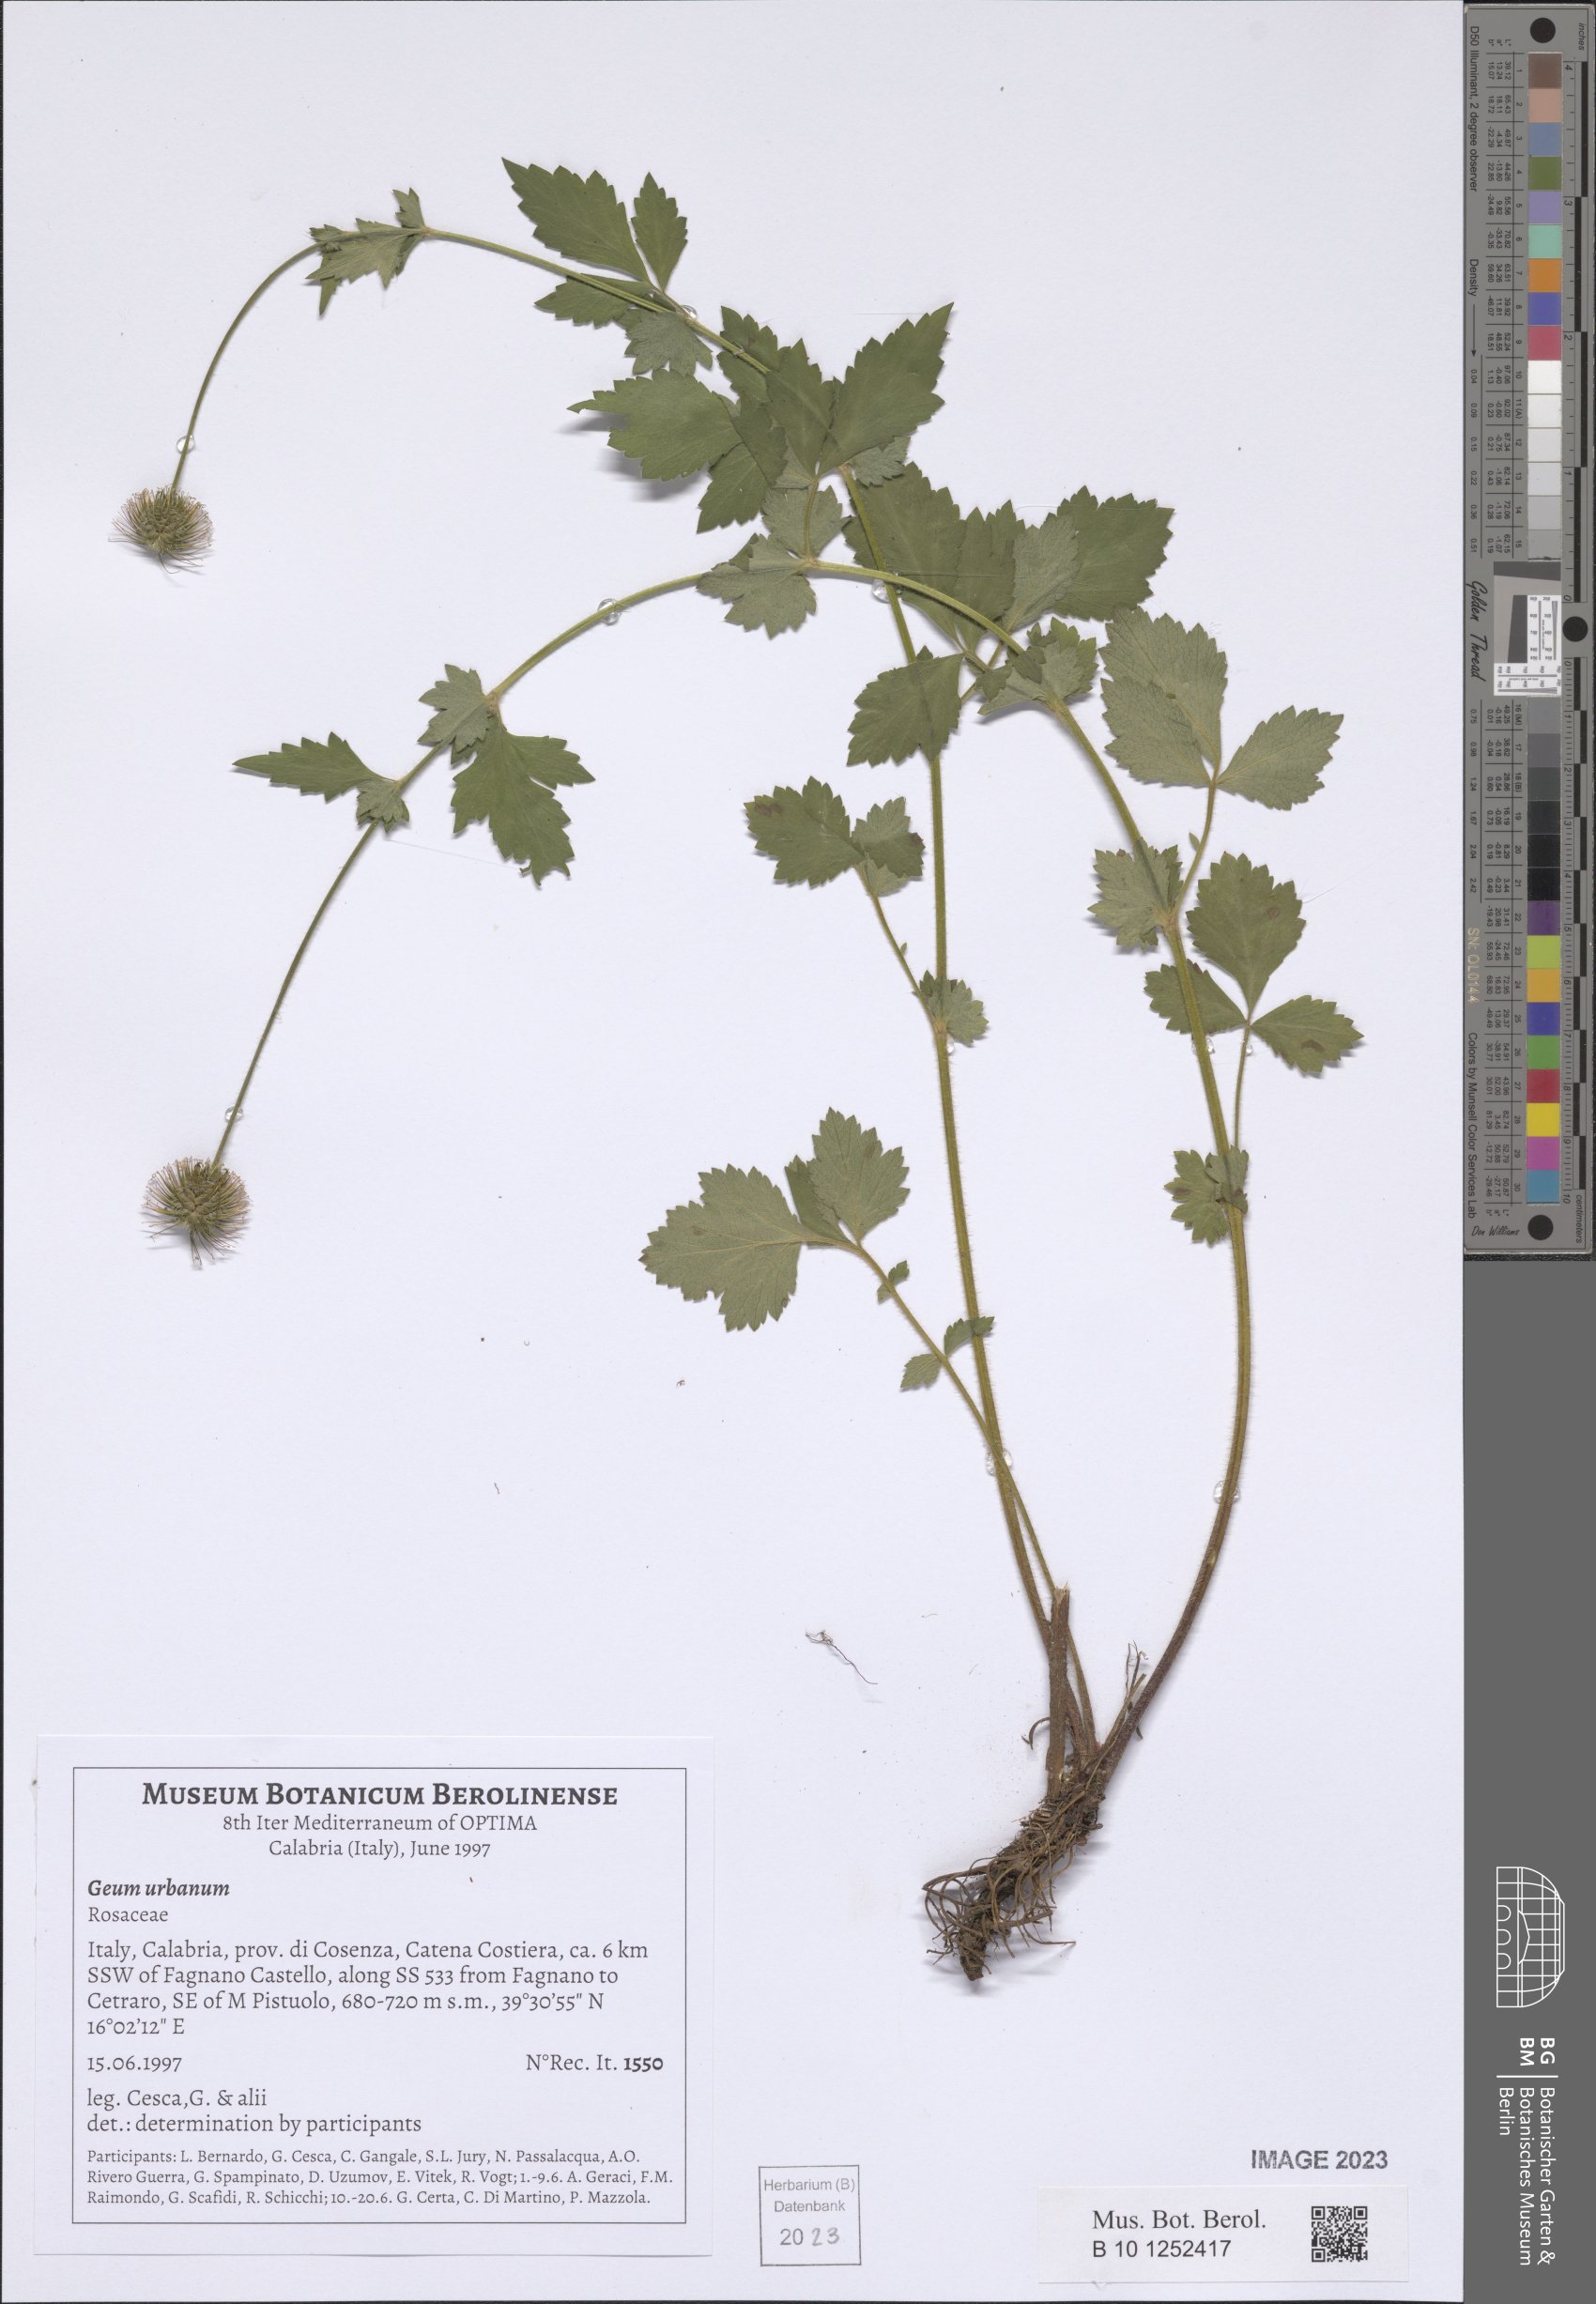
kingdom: Plantae
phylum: Tracheophyta
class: Magnoliopsida
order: Rosales
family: Rosaceae
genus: Geum
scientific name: Geum urbanum
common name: Wood avens
